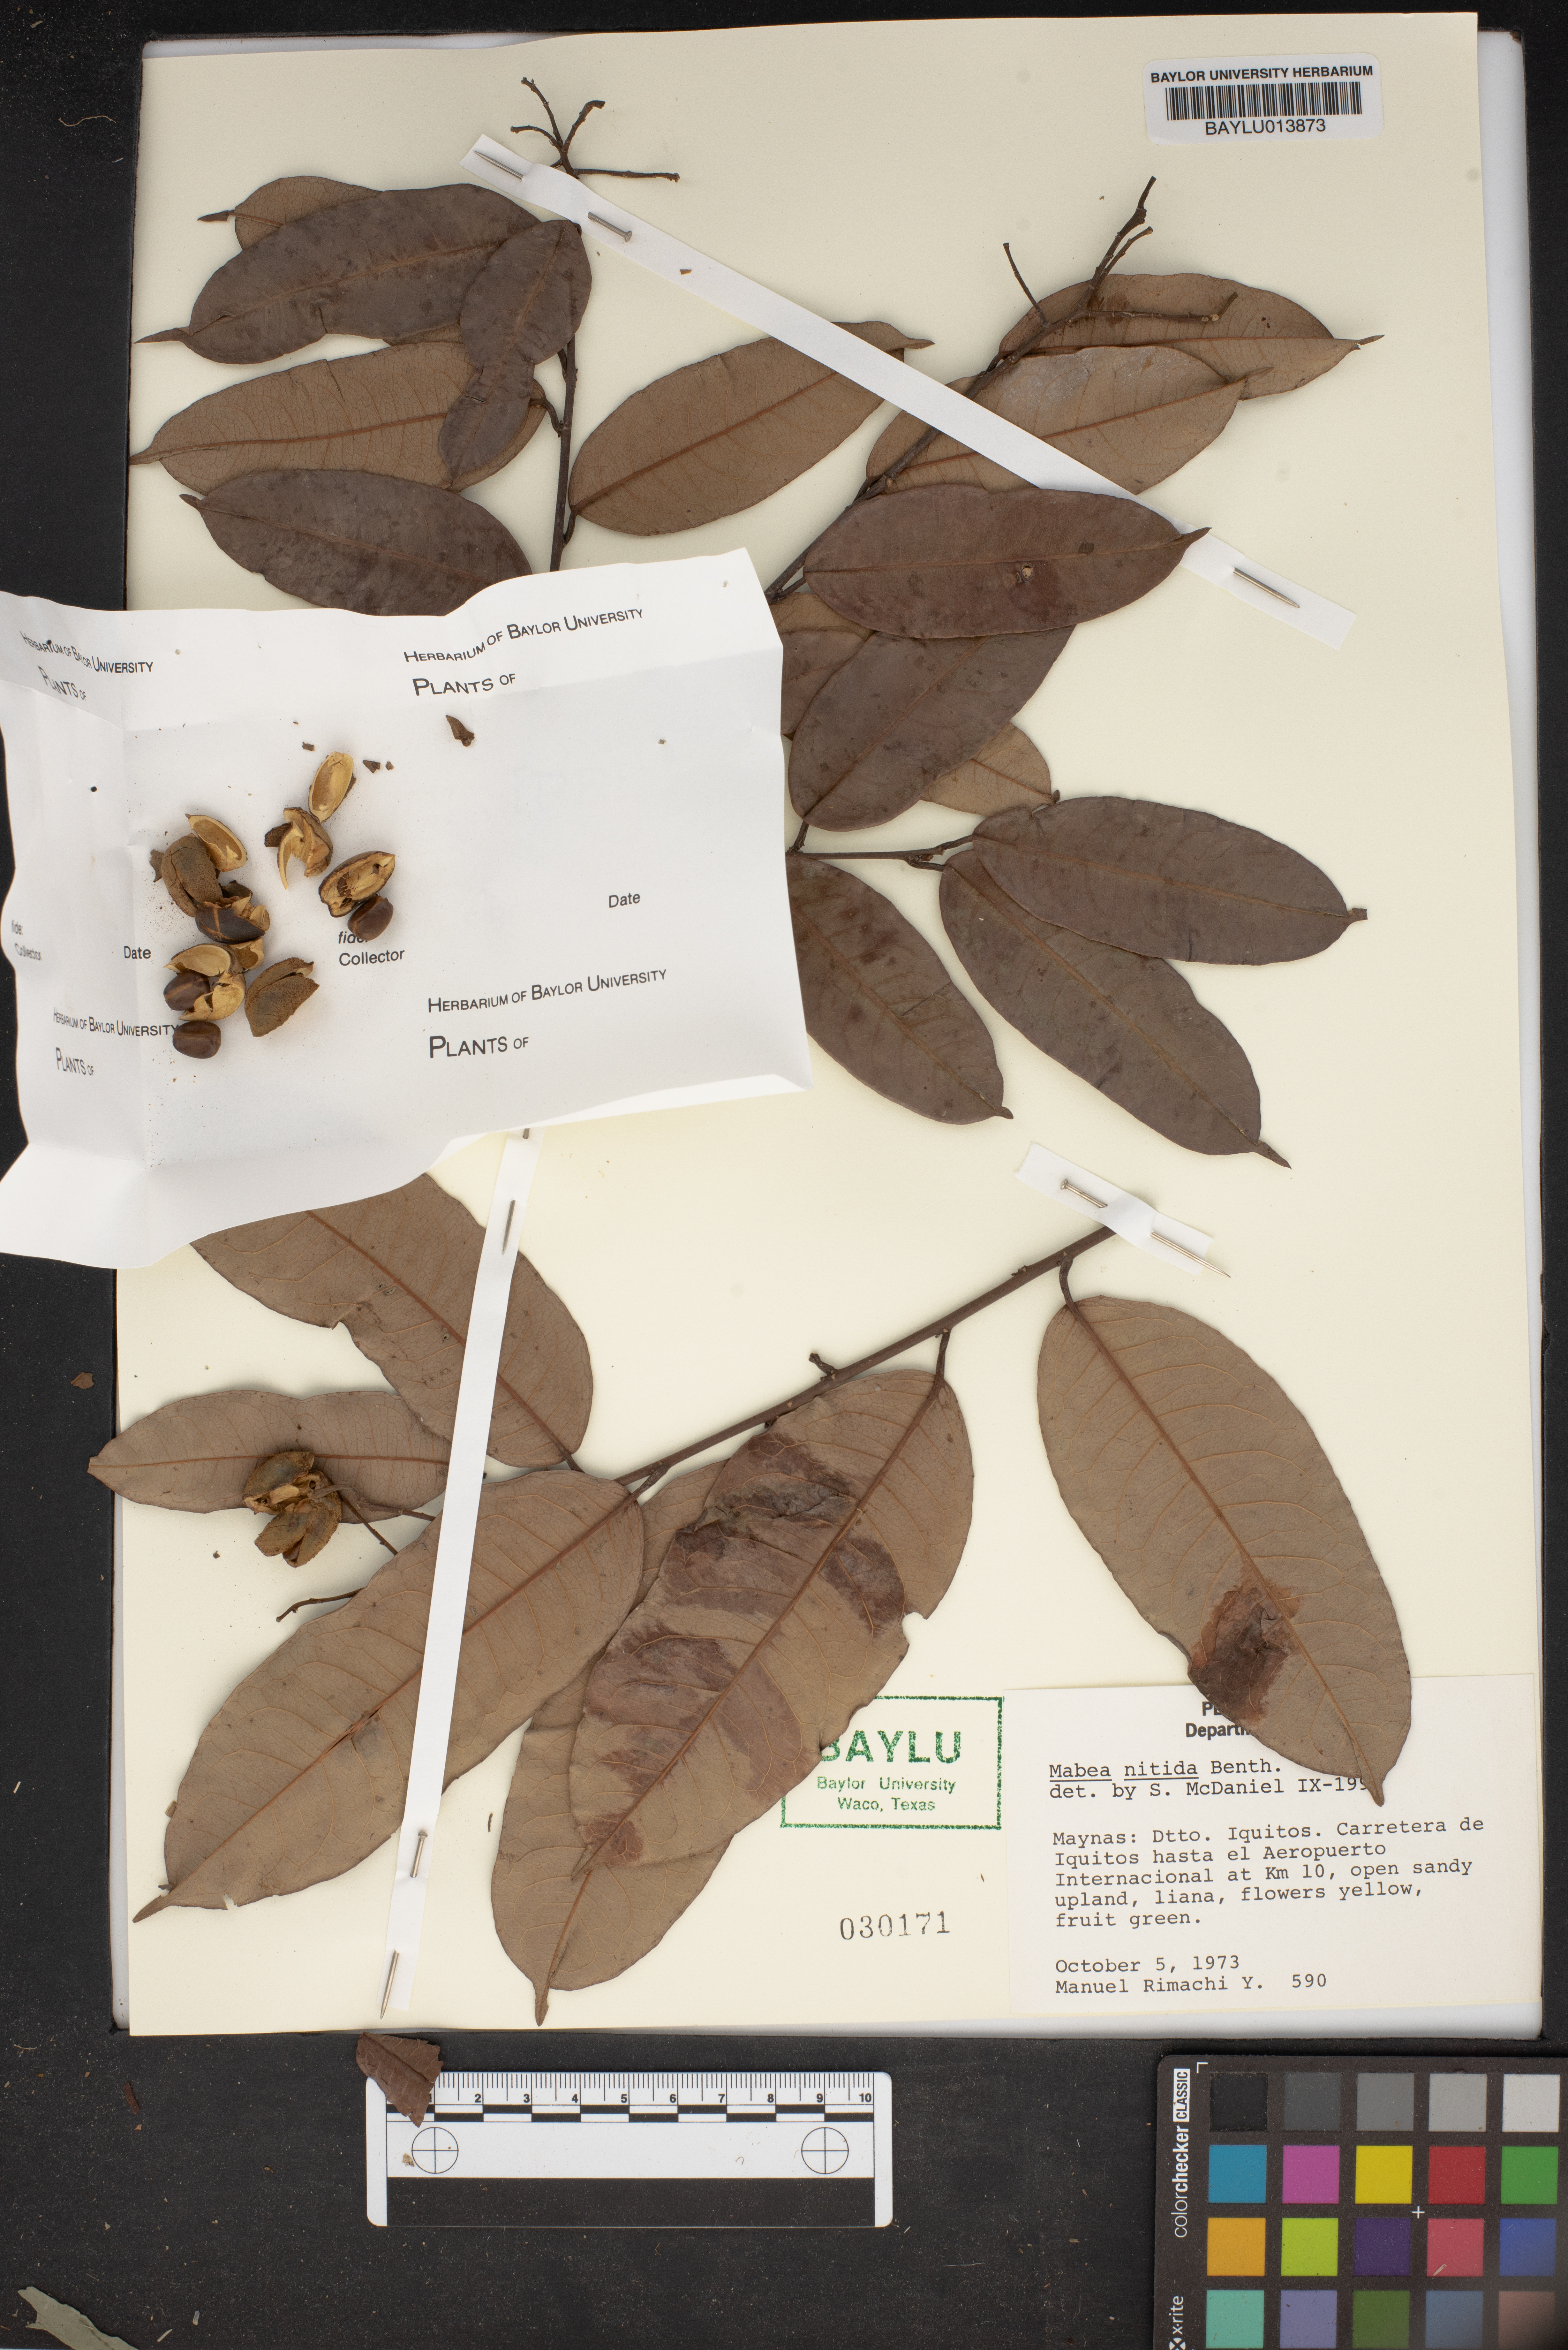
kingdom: Plantae
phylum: Tracheophyta
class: Magnoliopsida
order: Malpighiales
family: Euphorbiaceae
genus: Mabea
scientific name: Mabea nitida
